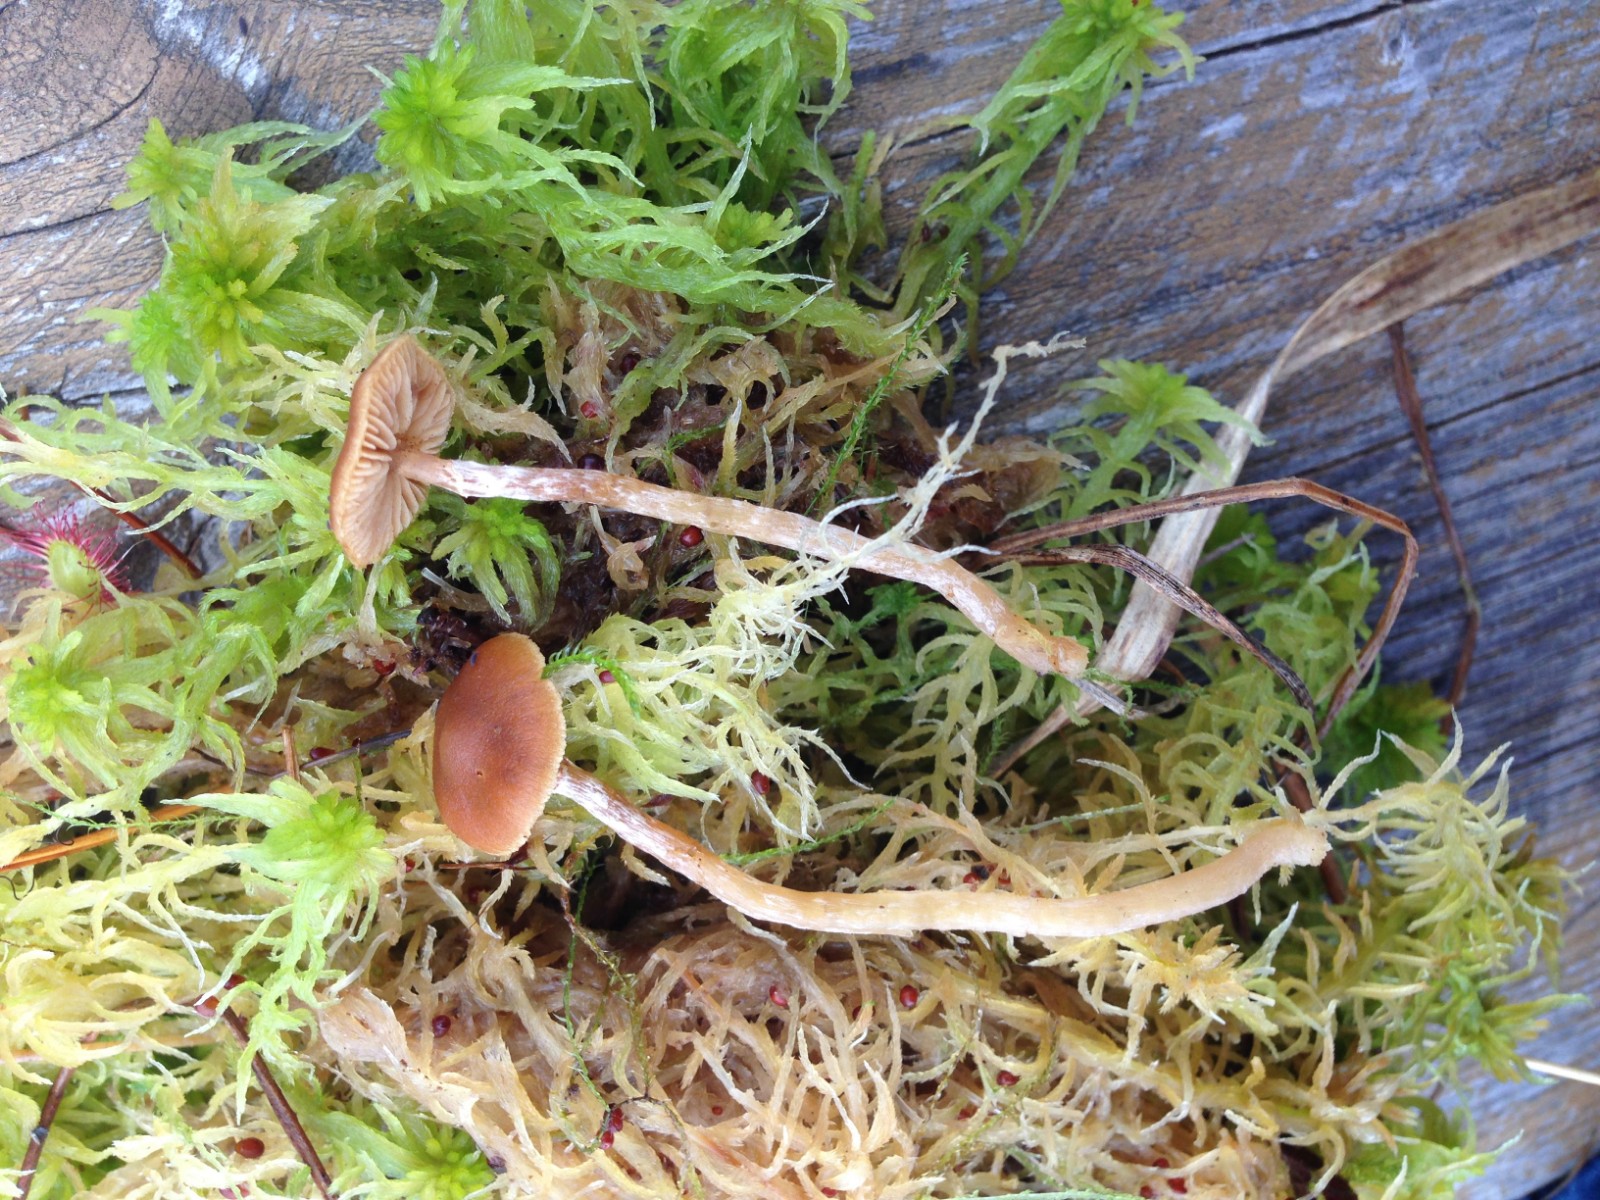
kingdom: Fungi
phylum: Basidiomycota
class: Agaricomycetes
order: Agaricales
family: Hymenogastraceae
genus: Galerina
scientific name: Galerina paludosa
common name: mose-hjelmhat
